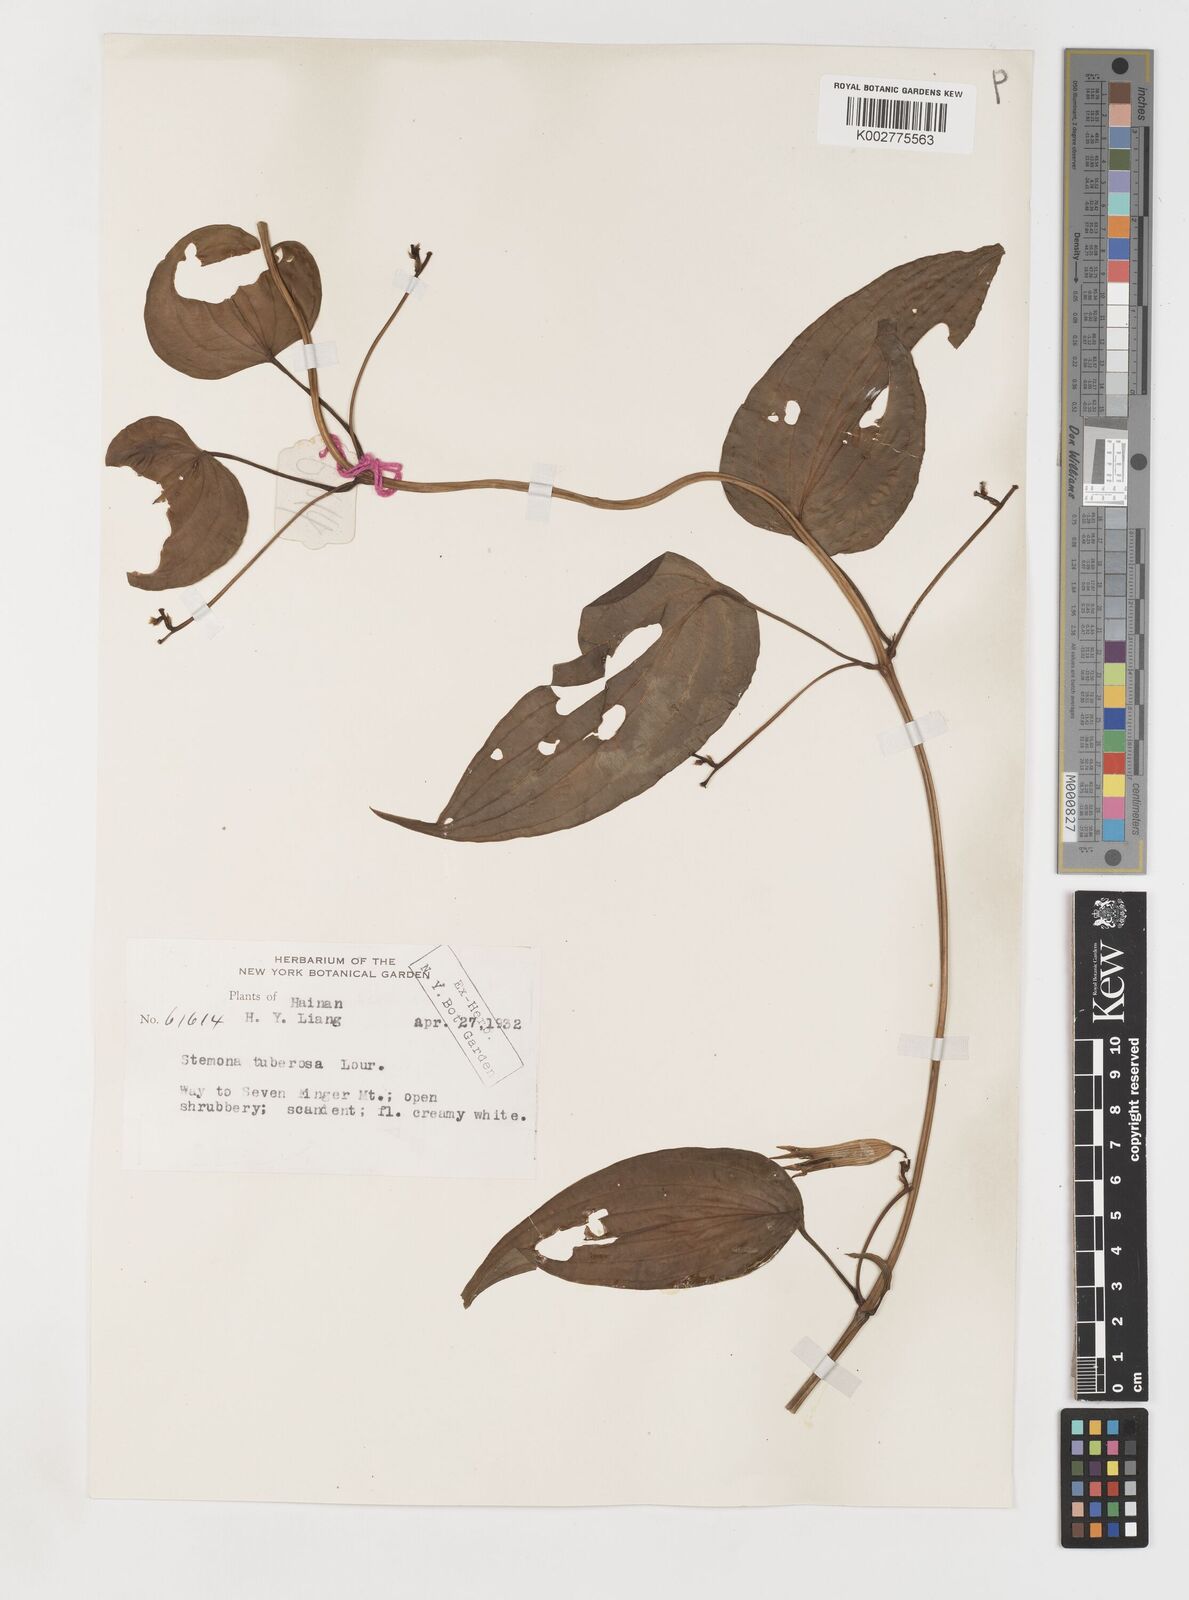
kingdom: Plantae
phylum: Tracheophyta
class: Liliopsida
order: Pandanales
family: Stemonaceae
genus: Stemona
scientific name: Stemona tuberosa
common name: Stemona
